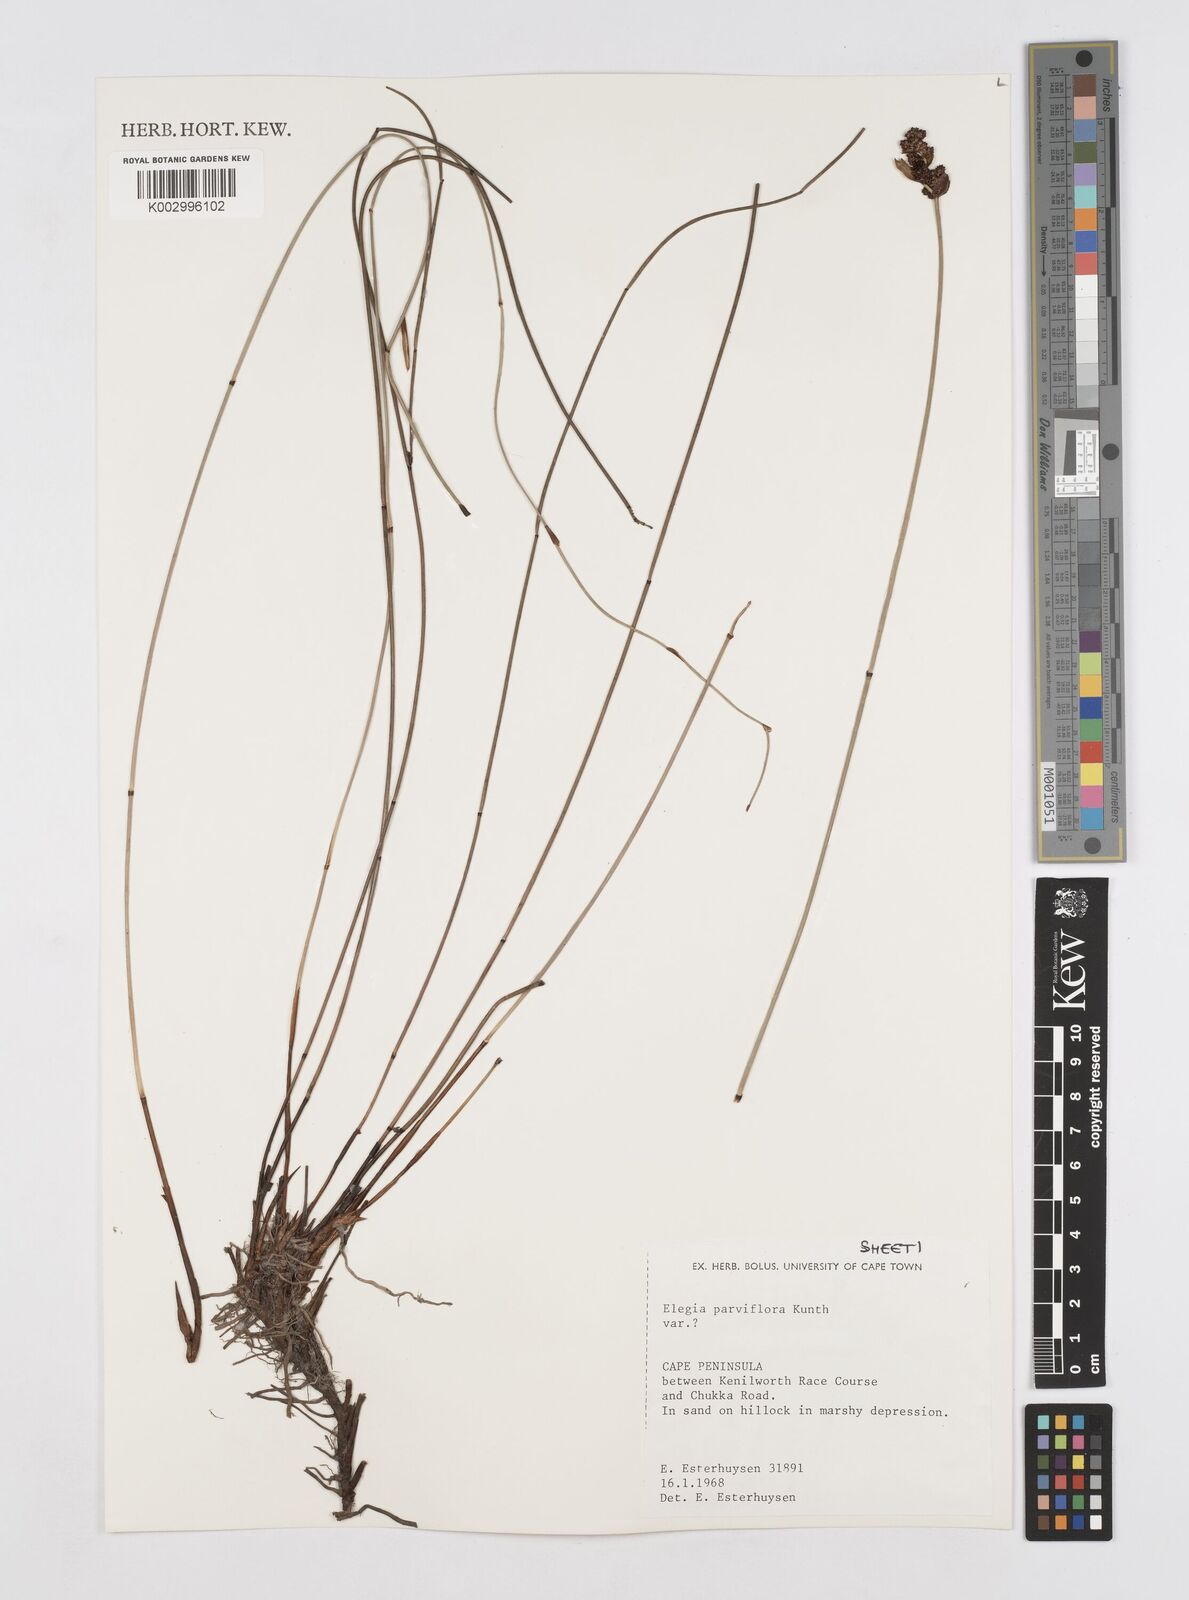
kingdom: Plantae
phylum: Tracheophyta
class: Liliopsida
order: Poales
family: Restionaceae
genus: Cannomois
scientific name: Cannomois parviflora
